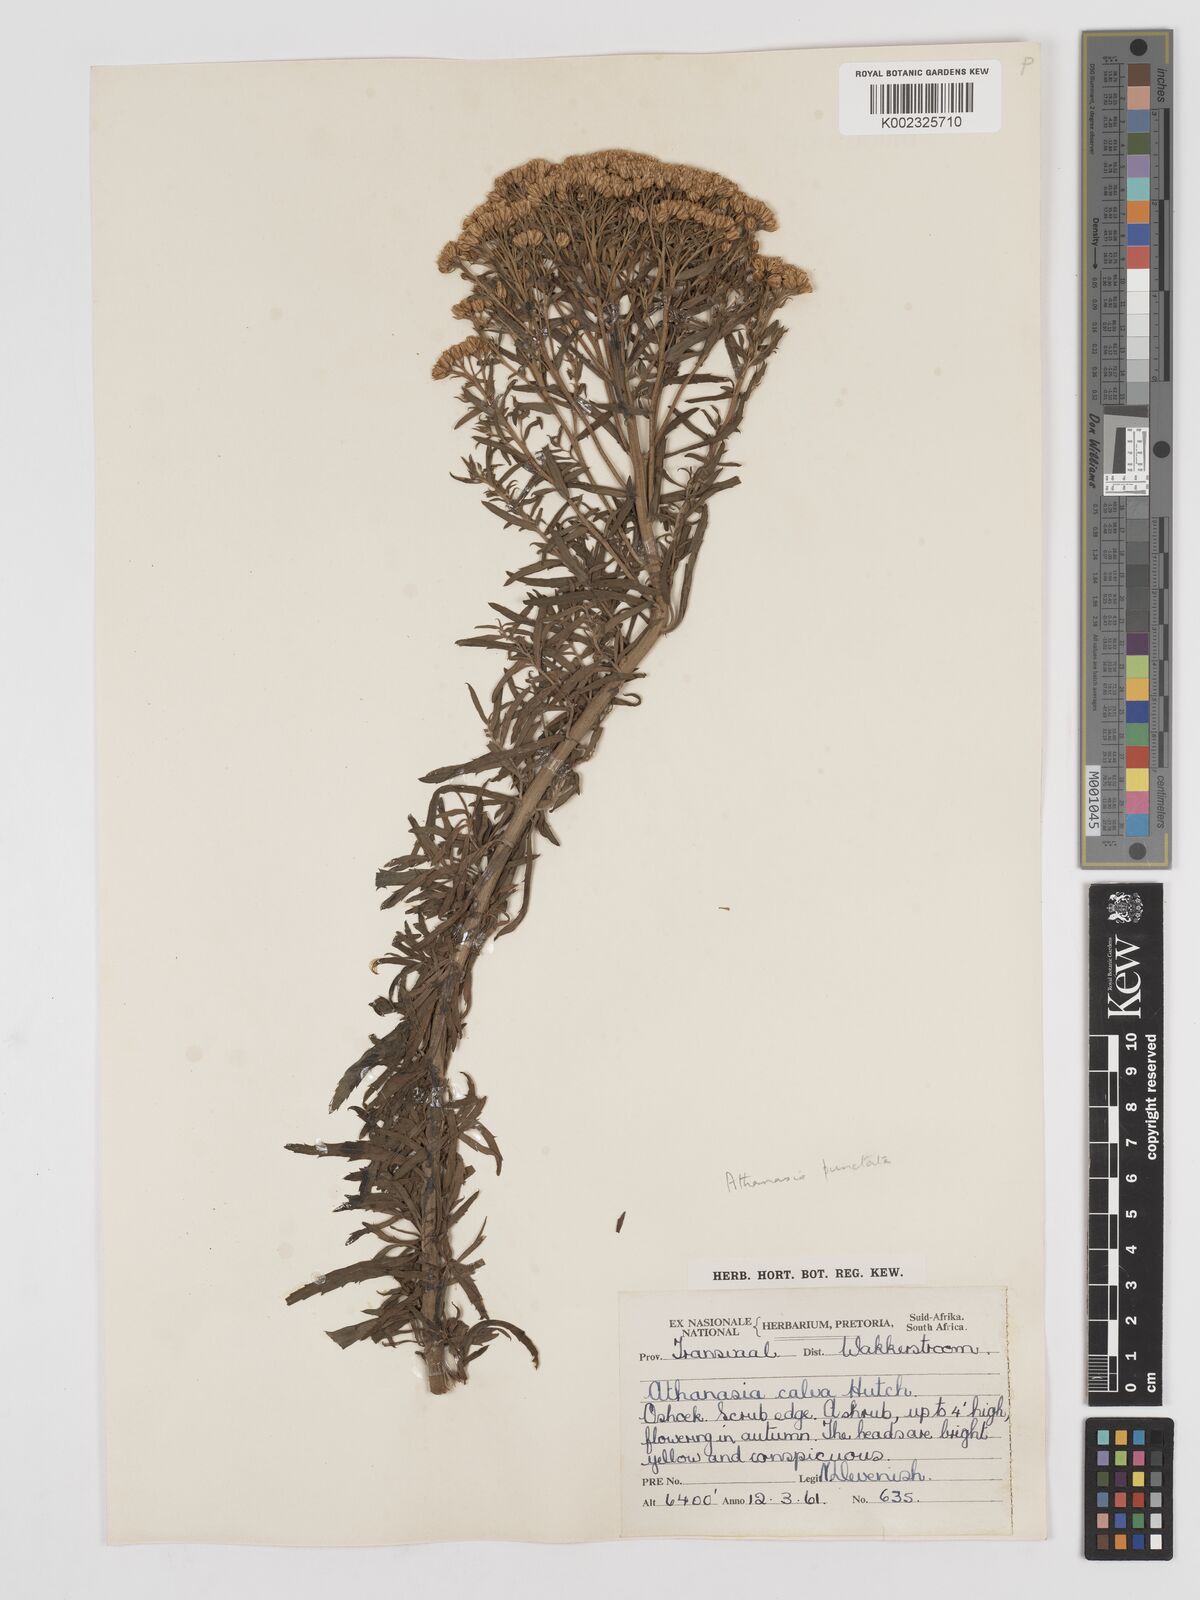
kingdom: Plantae
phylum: Tracheophyta
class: Magnoliopsida
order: Asterales
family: Asteraceae
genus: Inulanthera
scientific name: Inulanthera dregeana
